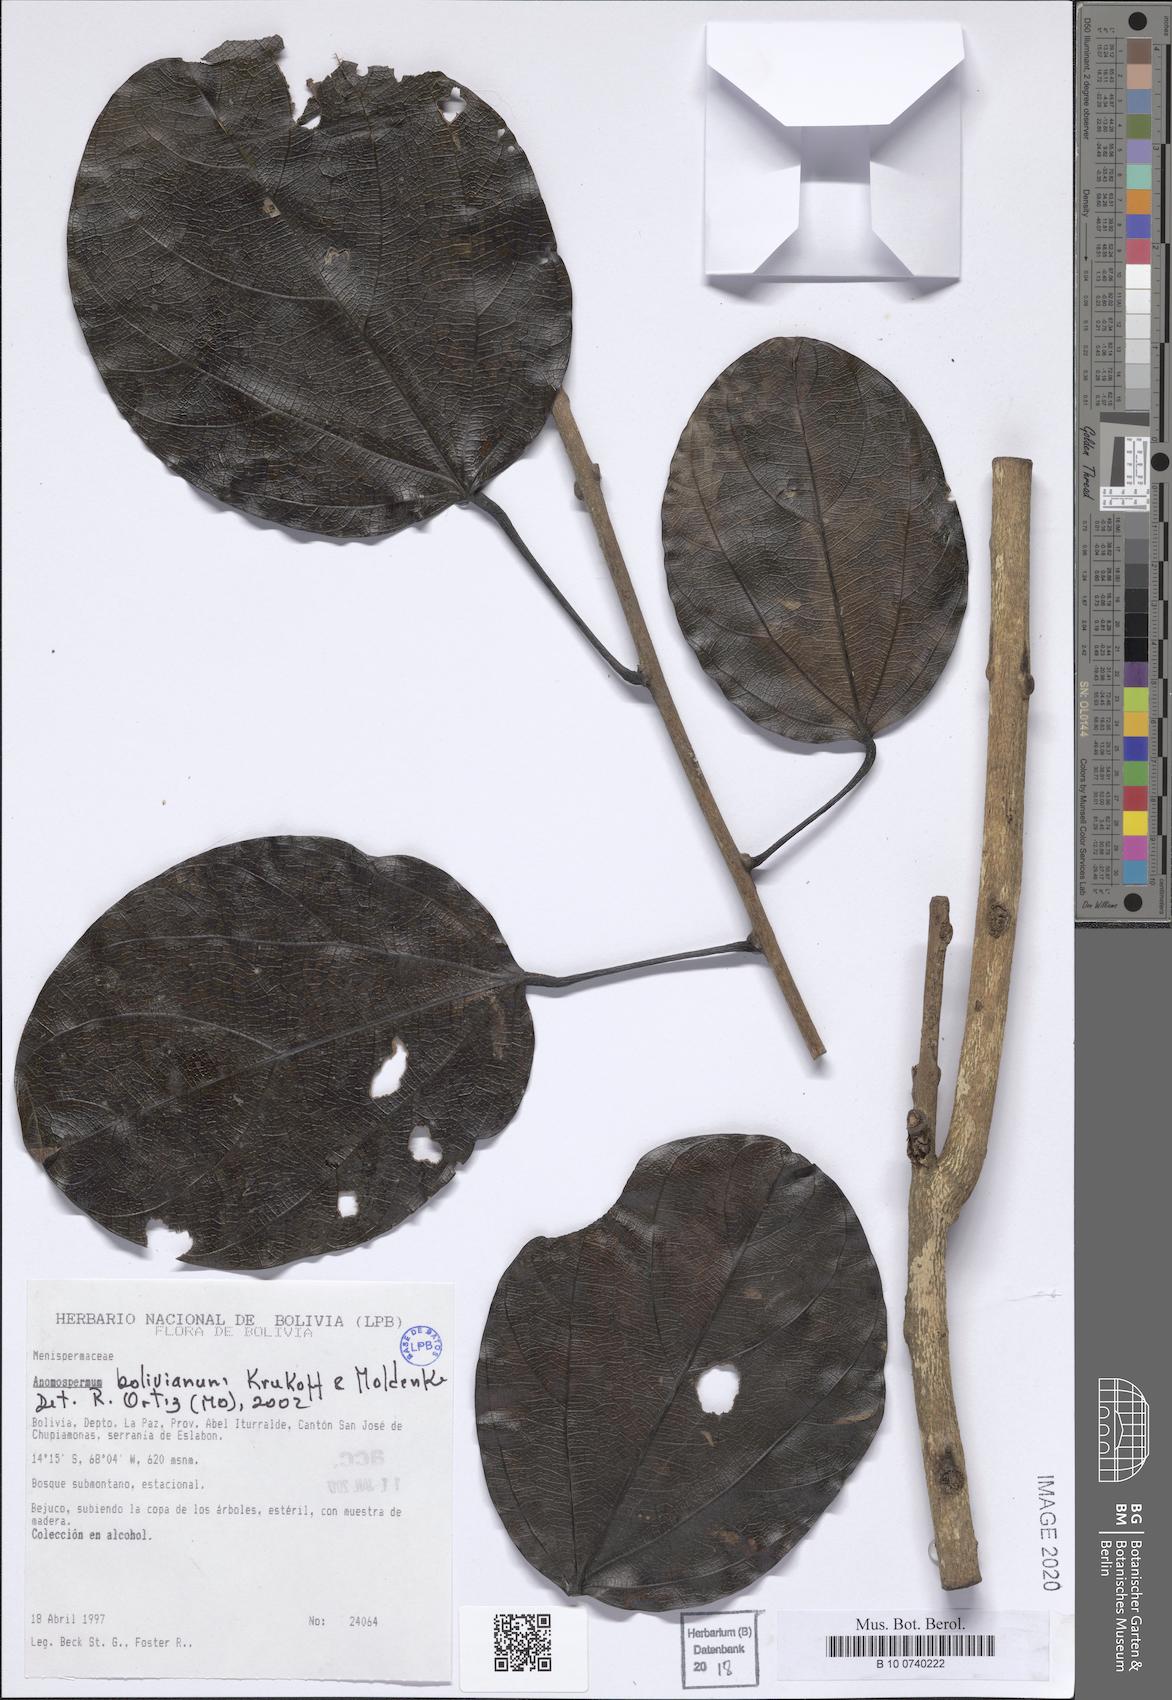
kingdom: Plantae
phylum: Tracheophyta
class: Magnoliopsida
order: Ranunculales
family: Menispermaceae
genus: Rupertiella
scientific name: Rupertiella boliviana
